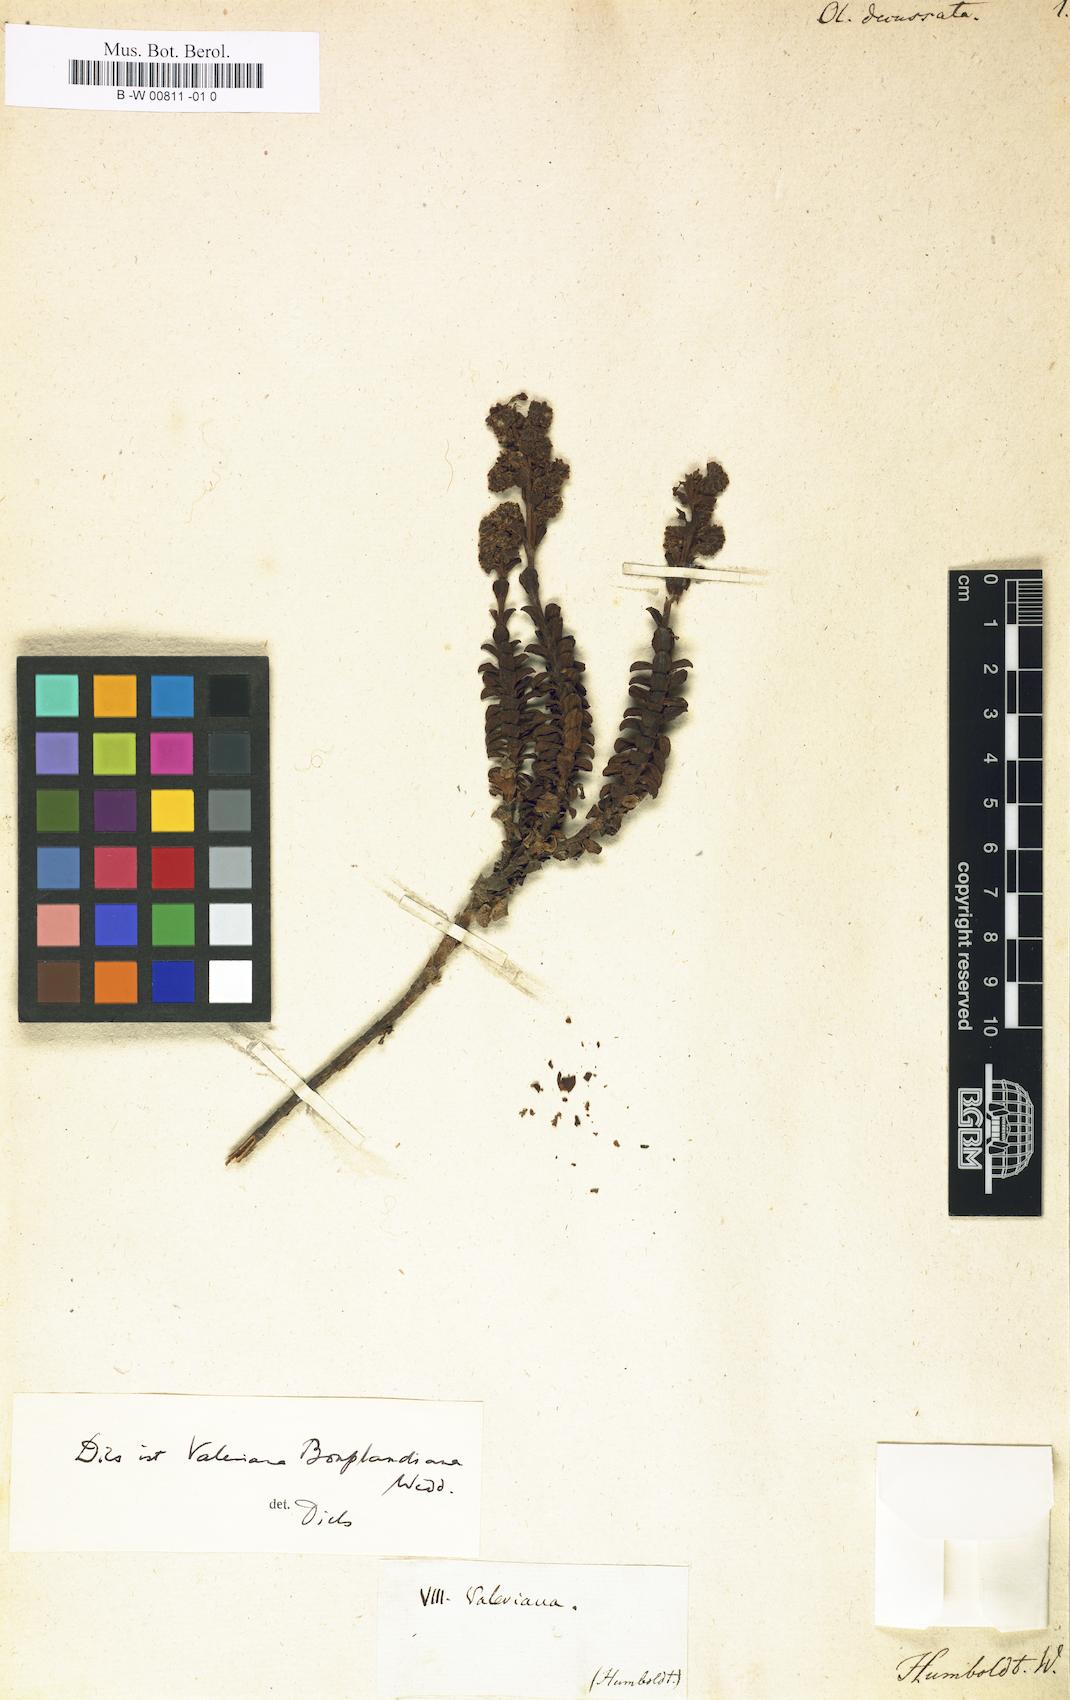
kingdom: Plantae
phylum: Tracheophyta
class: Magnoliopsida
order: Dipsacales
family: Caprifoliaceae
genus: Valeriana
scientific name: Valeriana
